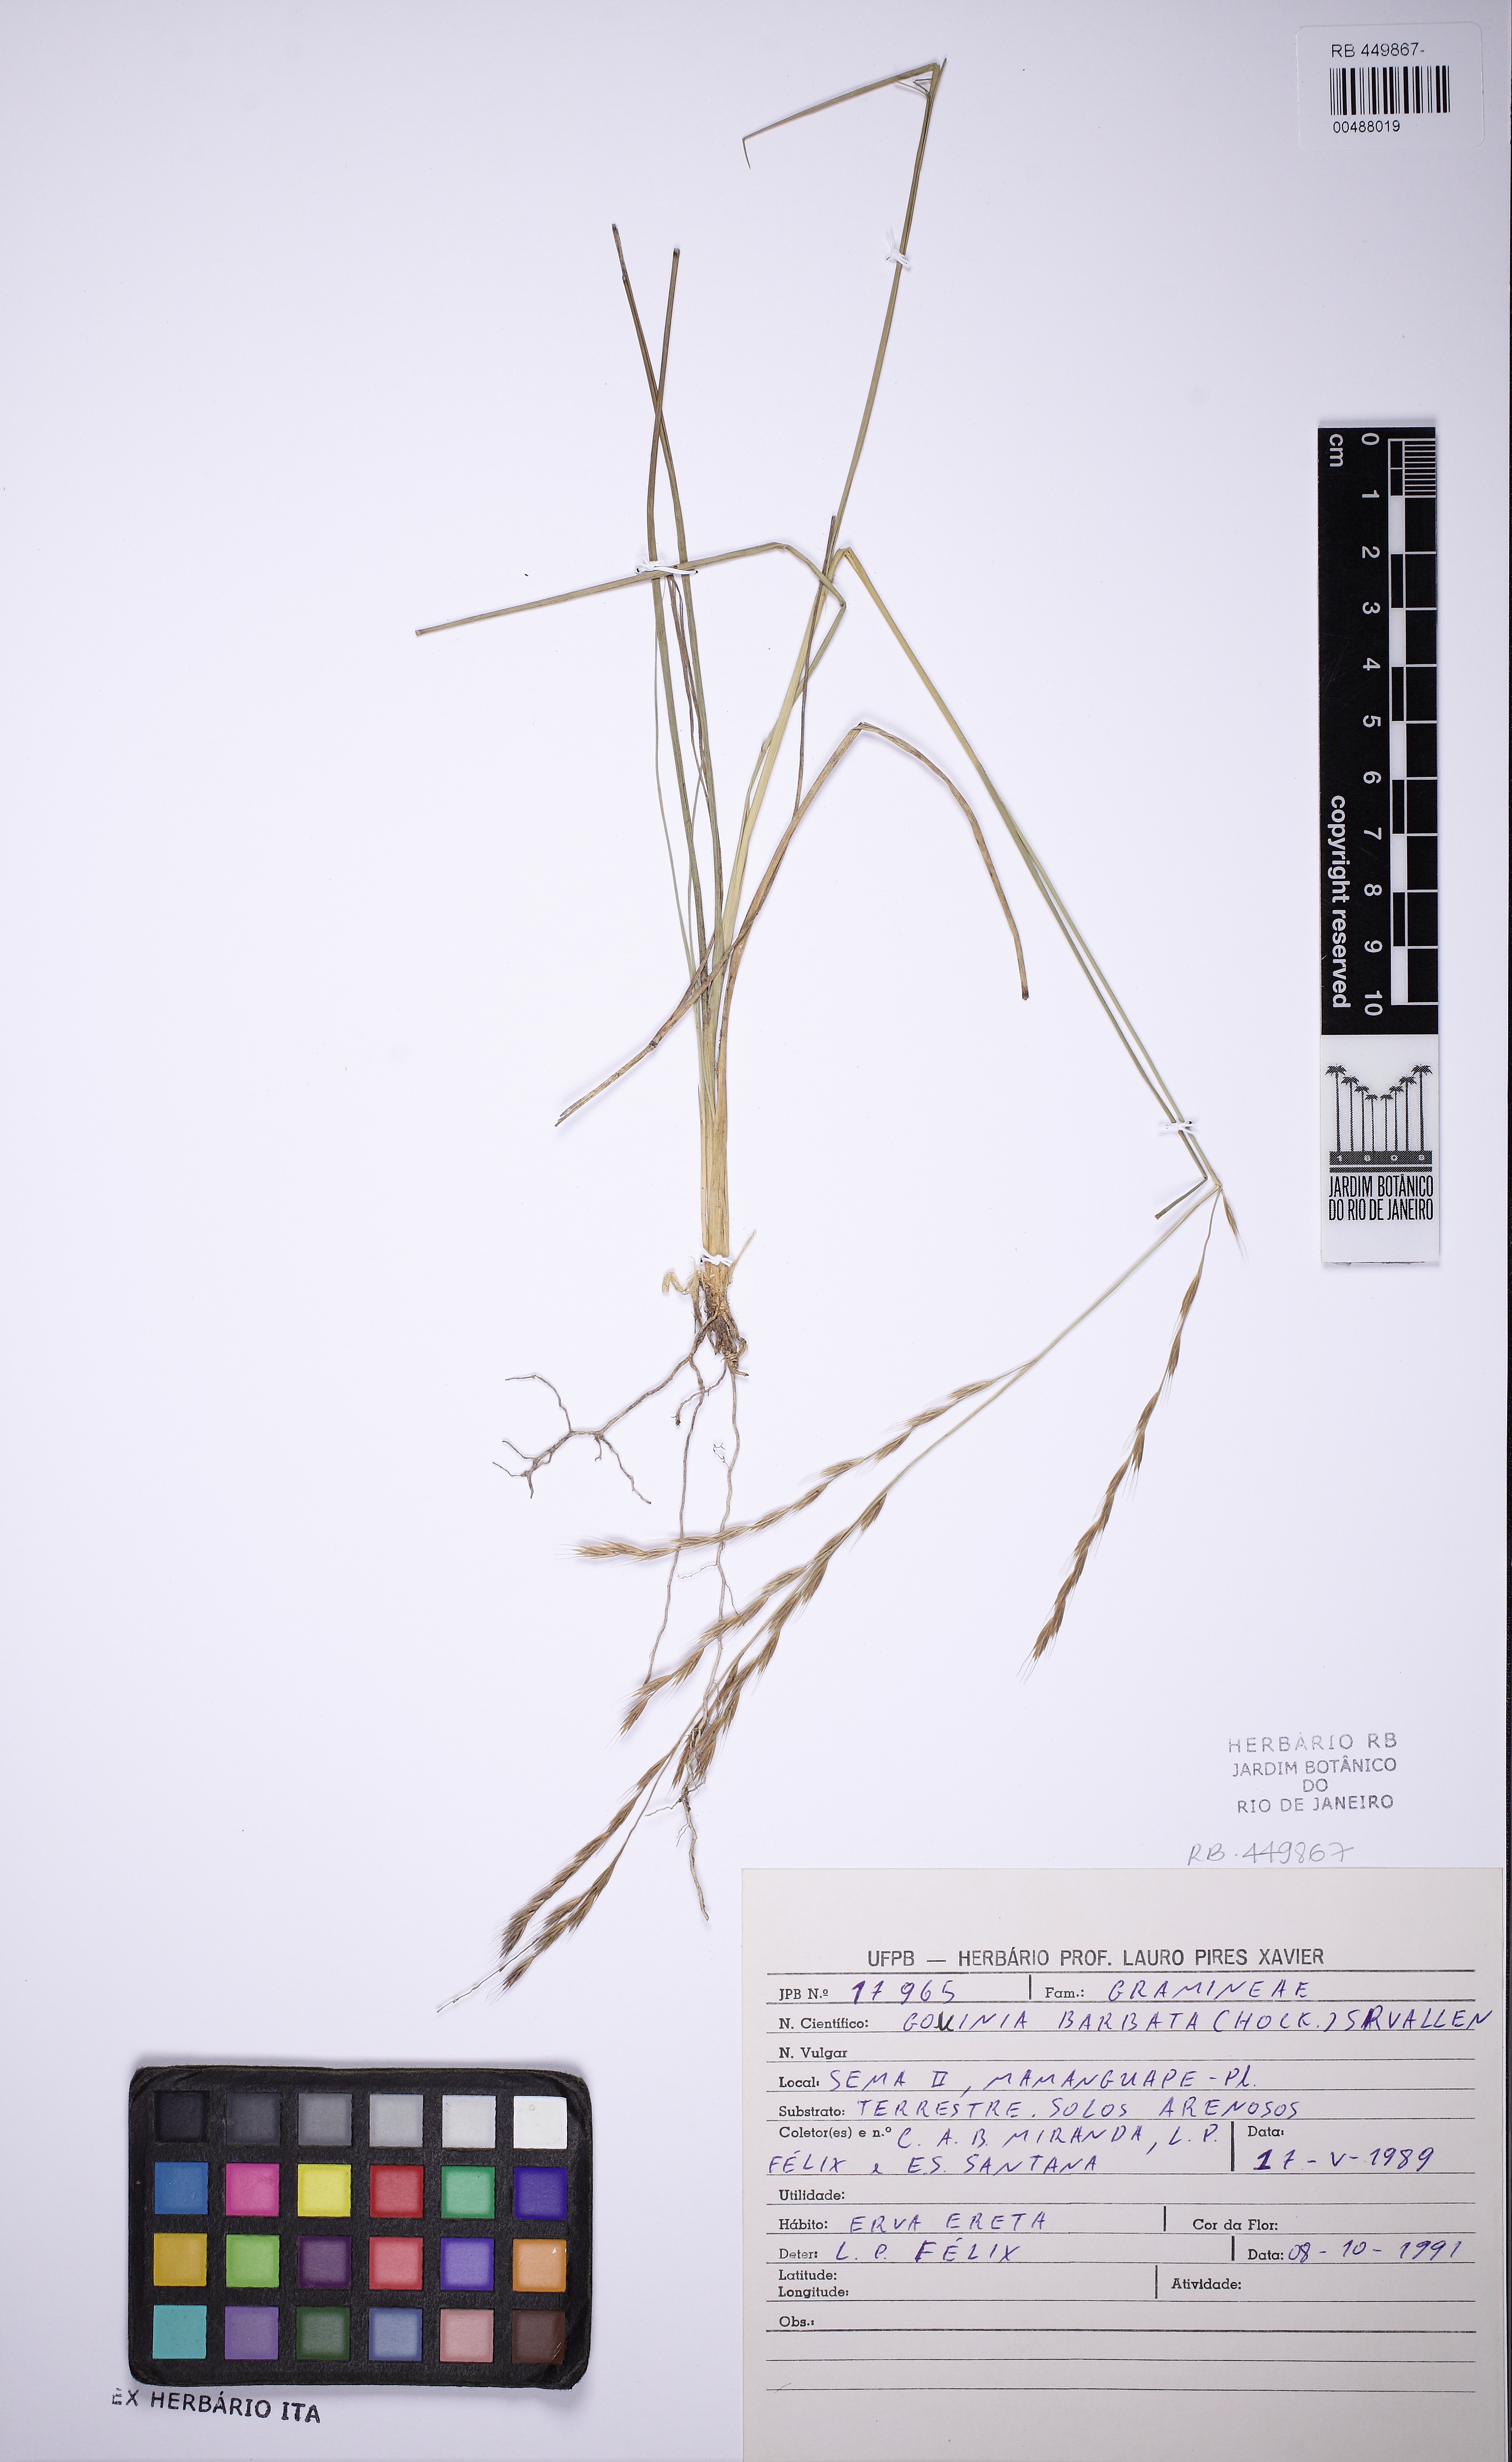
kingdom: Plantae
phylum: Tracheophyta
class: Liliopsida
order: Poales
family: Poaceae
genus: Schenckochloa
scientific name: Schenckochloa barbata
